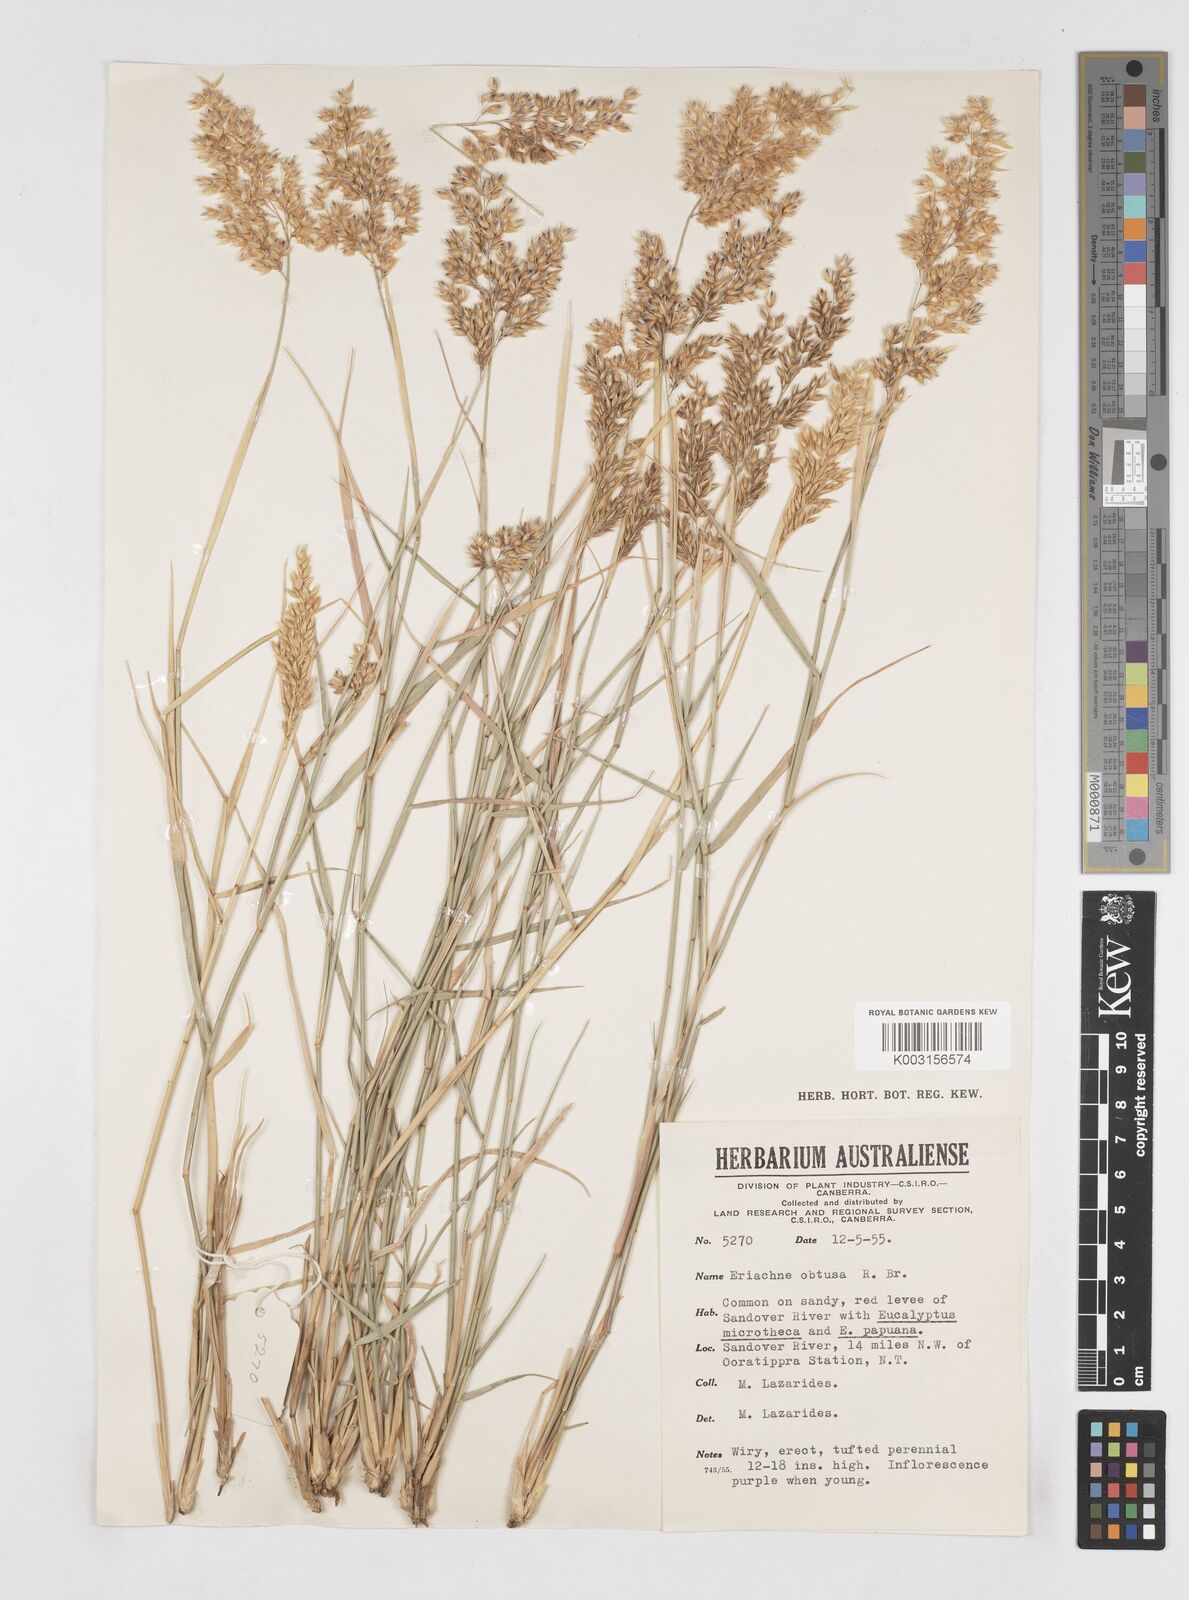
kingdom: Plantae
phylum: Tracheophyta
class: Liliopsida
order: Poales
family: Poaceae
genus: Eriachne
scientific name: Eriachne obtusa
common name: Northern wanderrie grass
